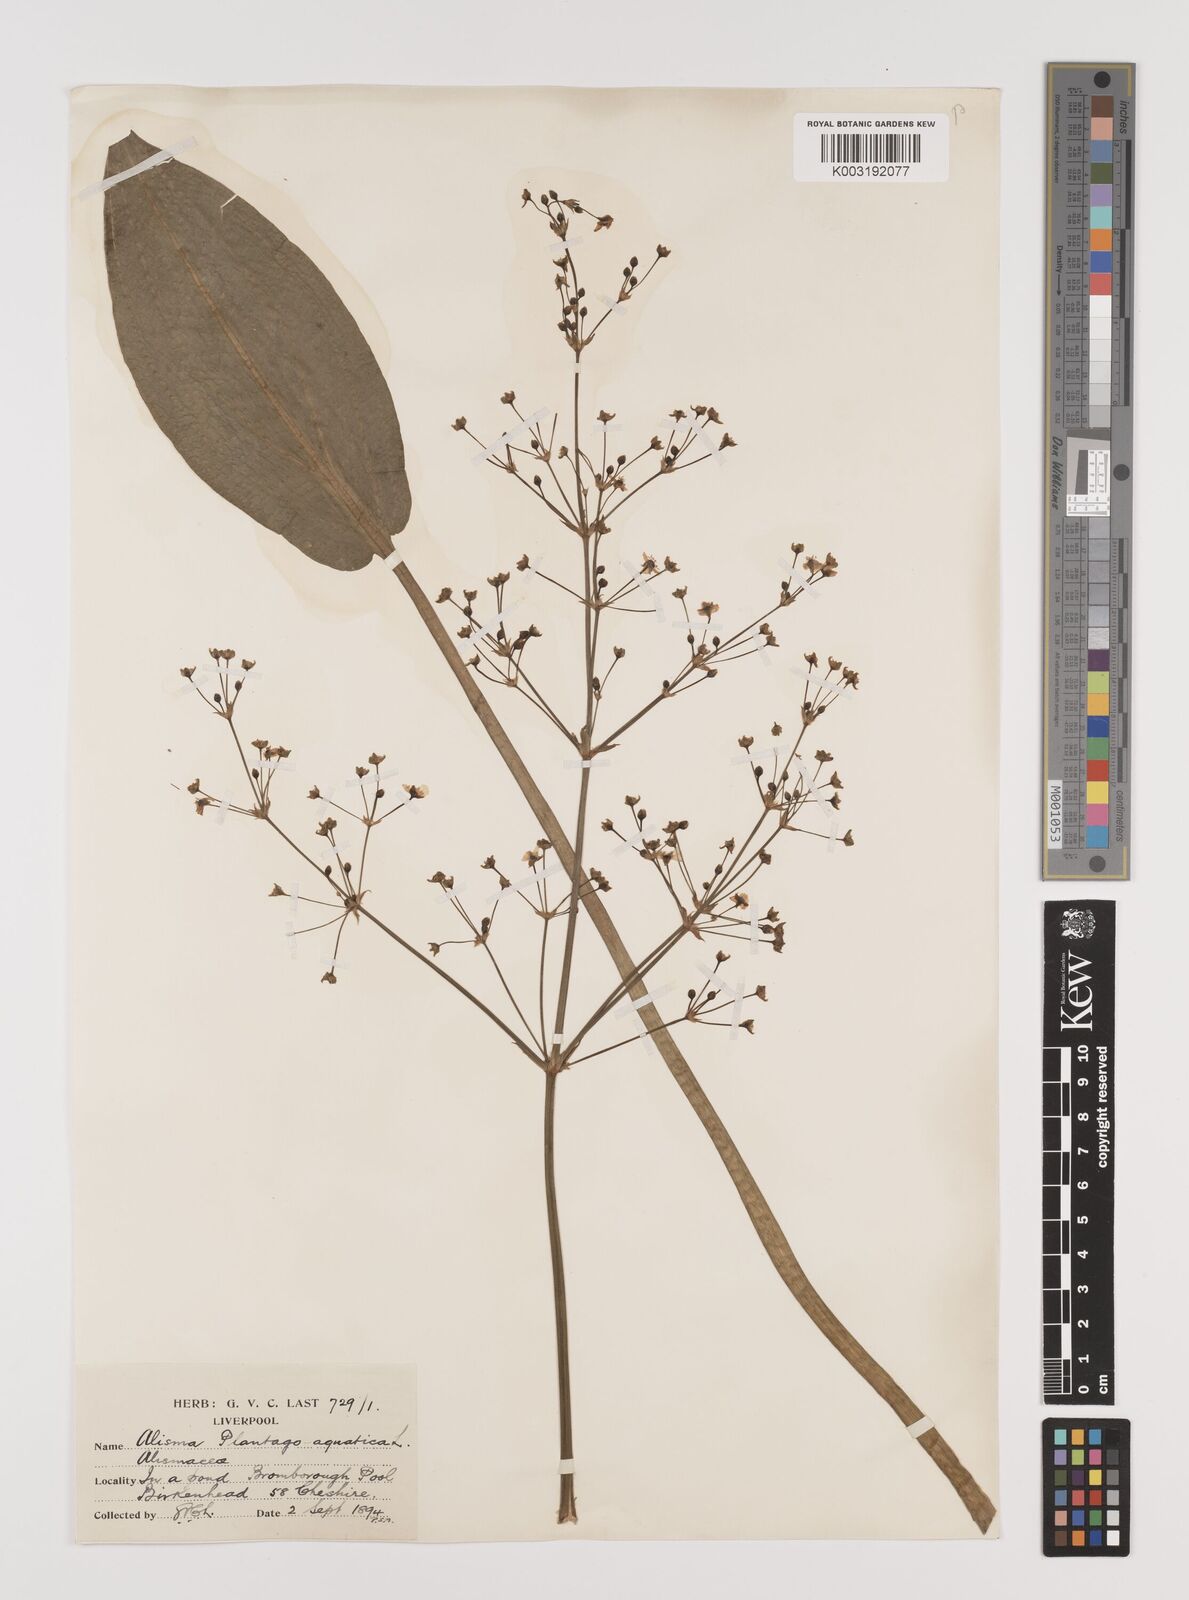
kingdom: Plantae
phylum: Tracheophyta
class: Liliopsida
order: Alismatales
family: Alismataceae
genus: Alisma
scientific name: Alisma plantago-aquatica
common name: Water-plantain
